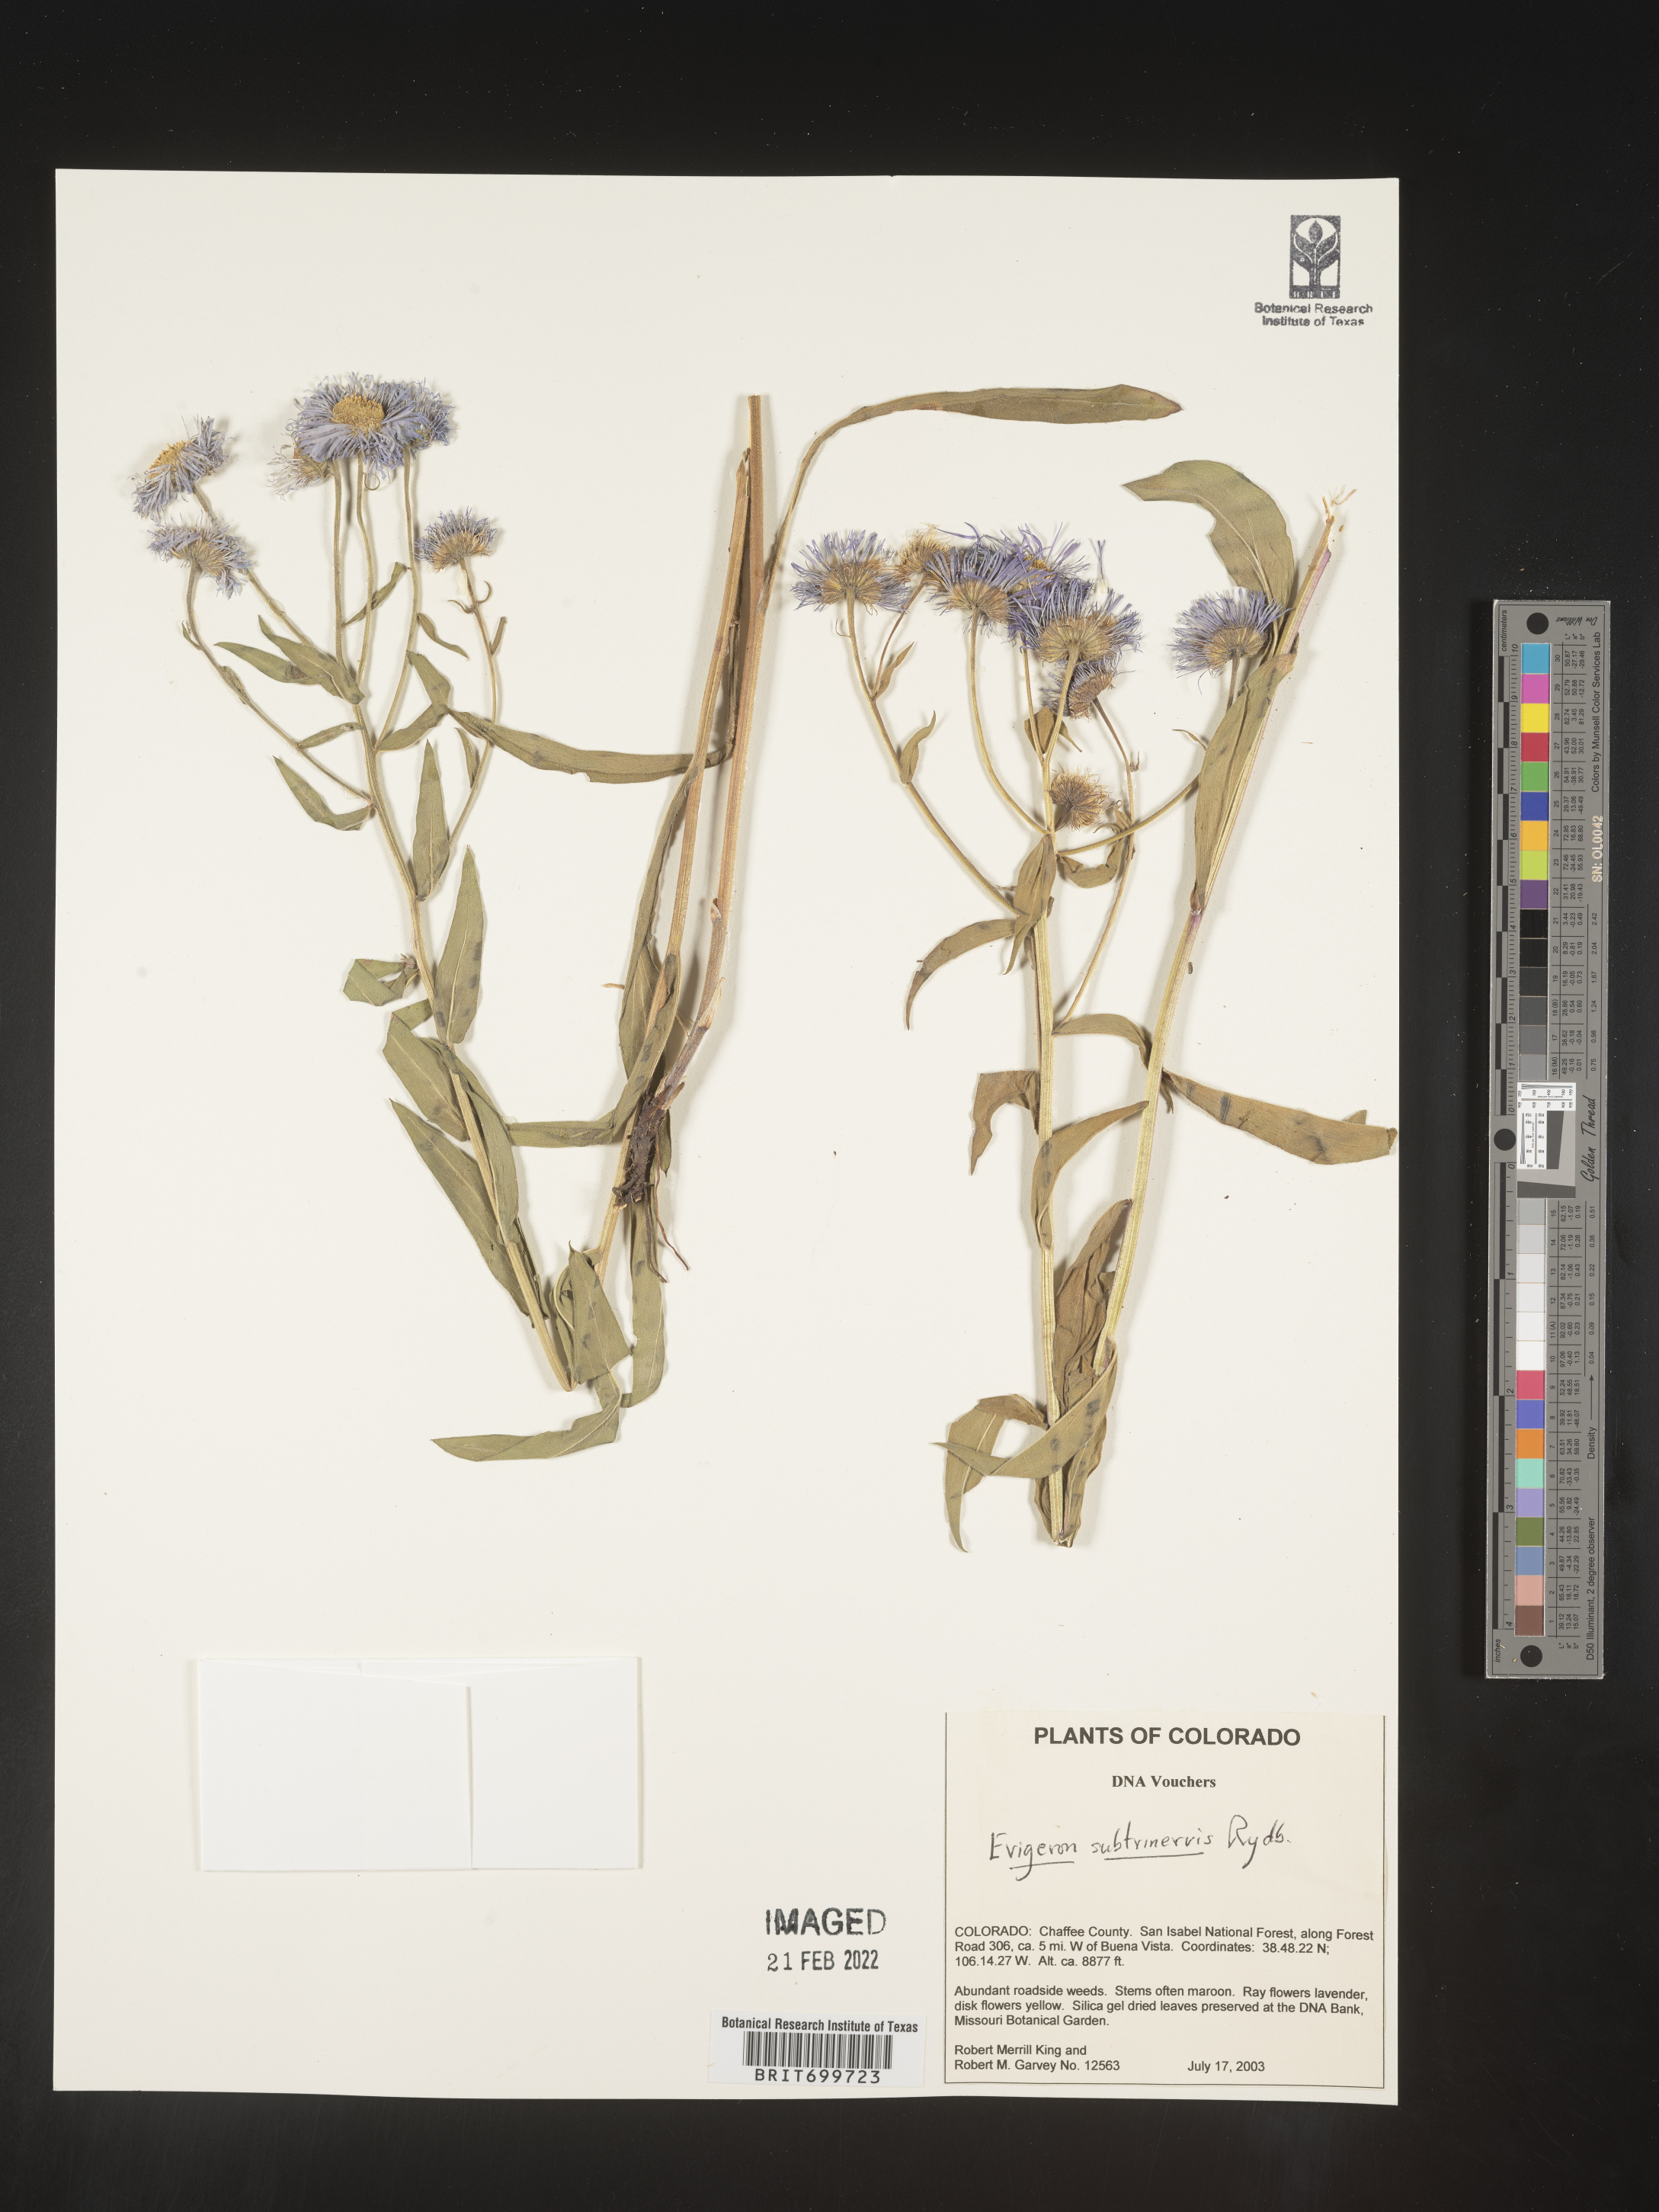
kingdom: Plantae
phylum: Tracheophyta
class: Magnoliopsida
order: Asterales
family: Asteraceae
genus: Erigeron
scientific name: Erigeron subtrinervis
